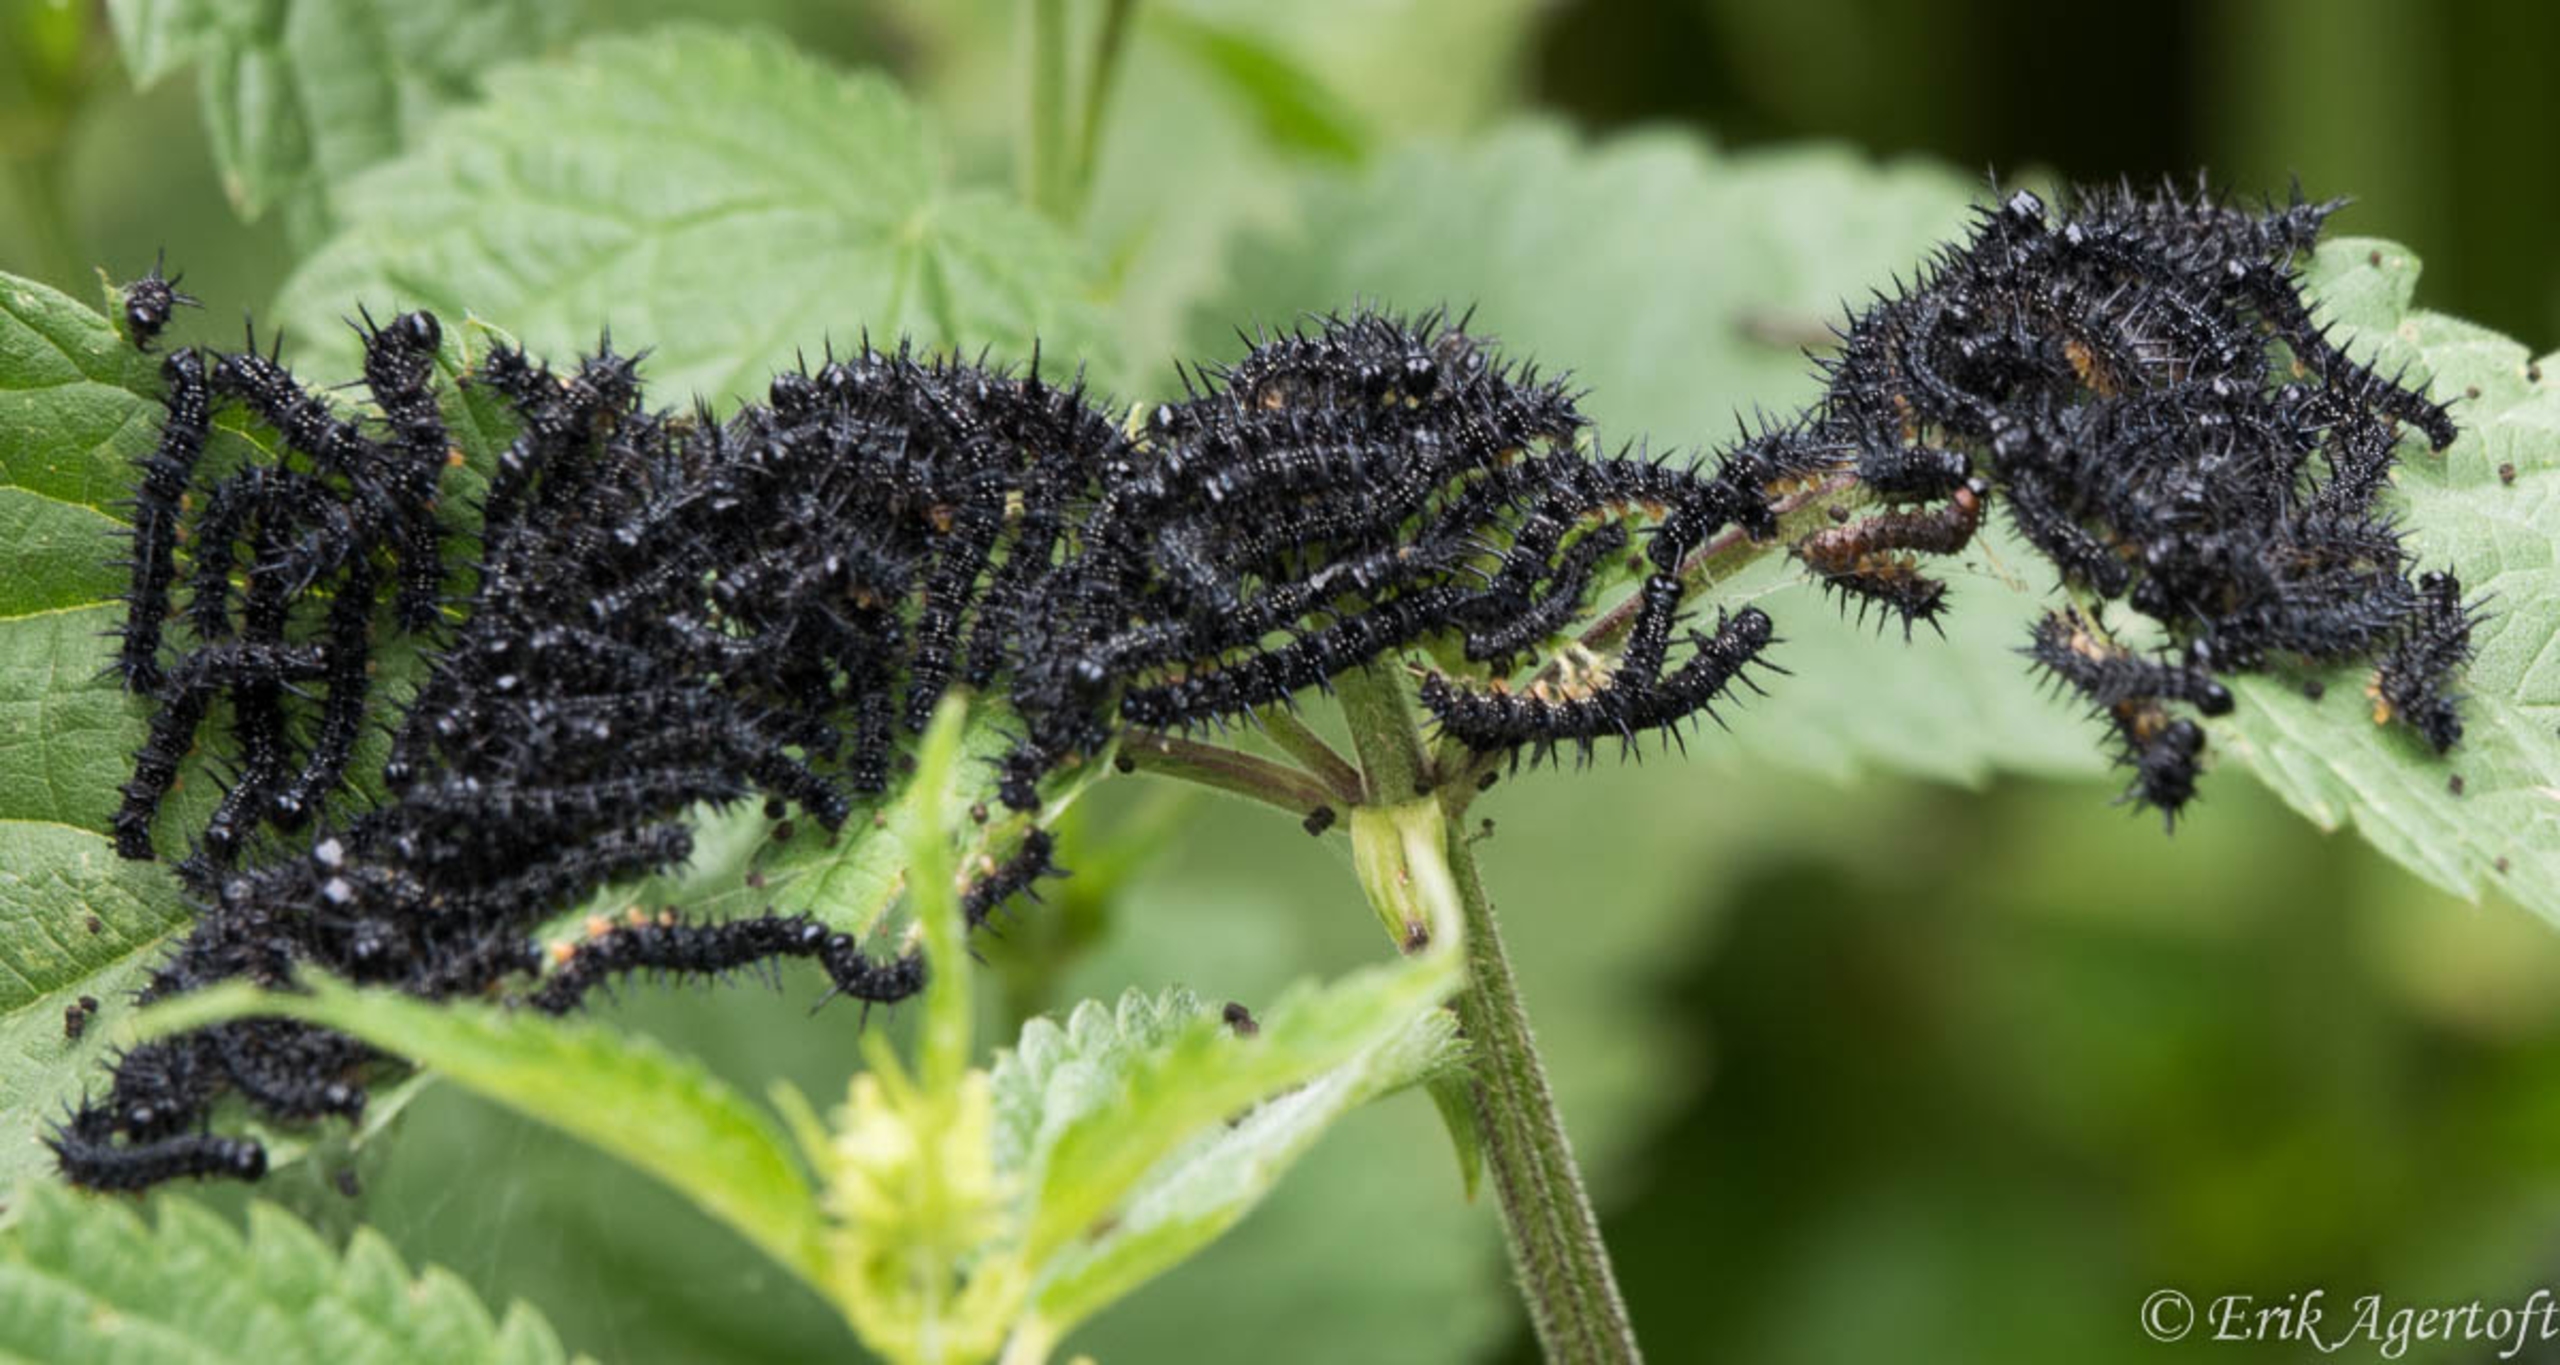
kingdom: Animalia
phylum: Arthropoda
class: Insecta
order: Lepidoptera
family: Nymphalidae
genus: Aglais
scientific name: Aglais io
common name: Dagpåfugleøje
